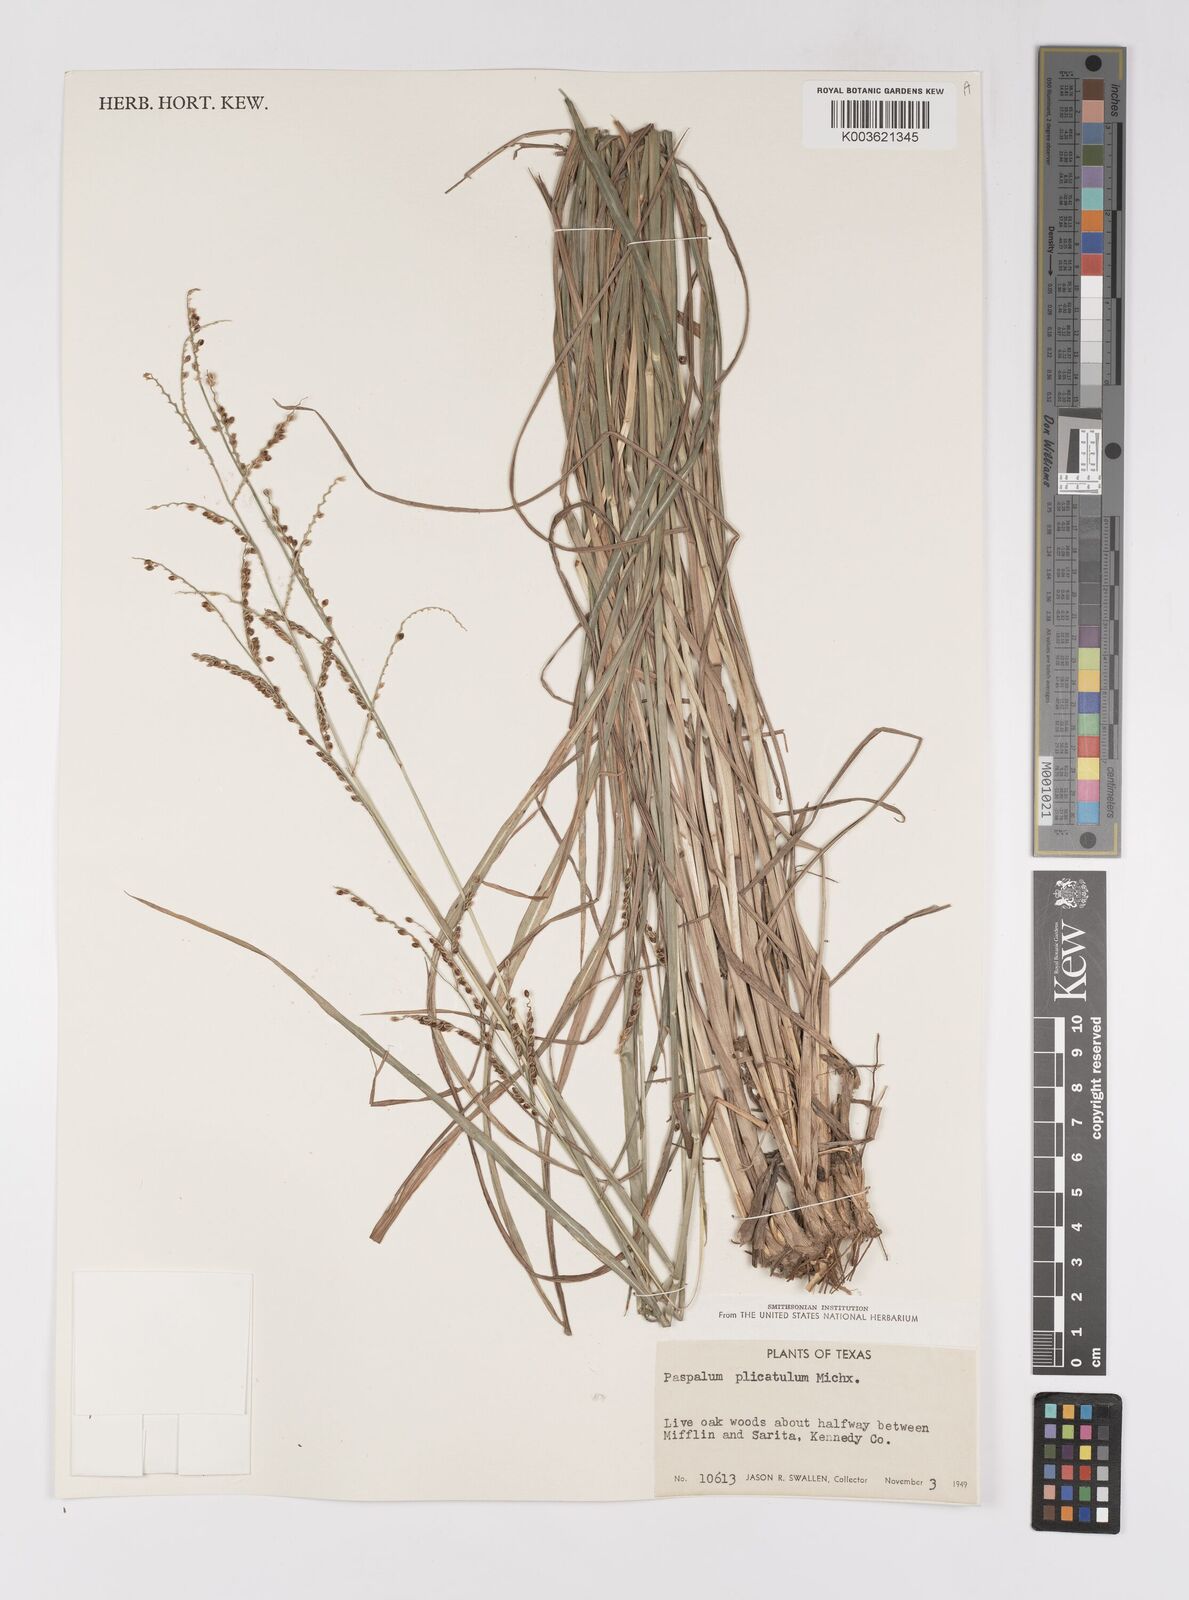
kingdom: Plantae
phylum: Tracheophyta
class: Liliopsida
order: Poales
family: Poaceae
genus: Paspalum
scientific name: Paspalum plicatulum
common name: Top paspalum
